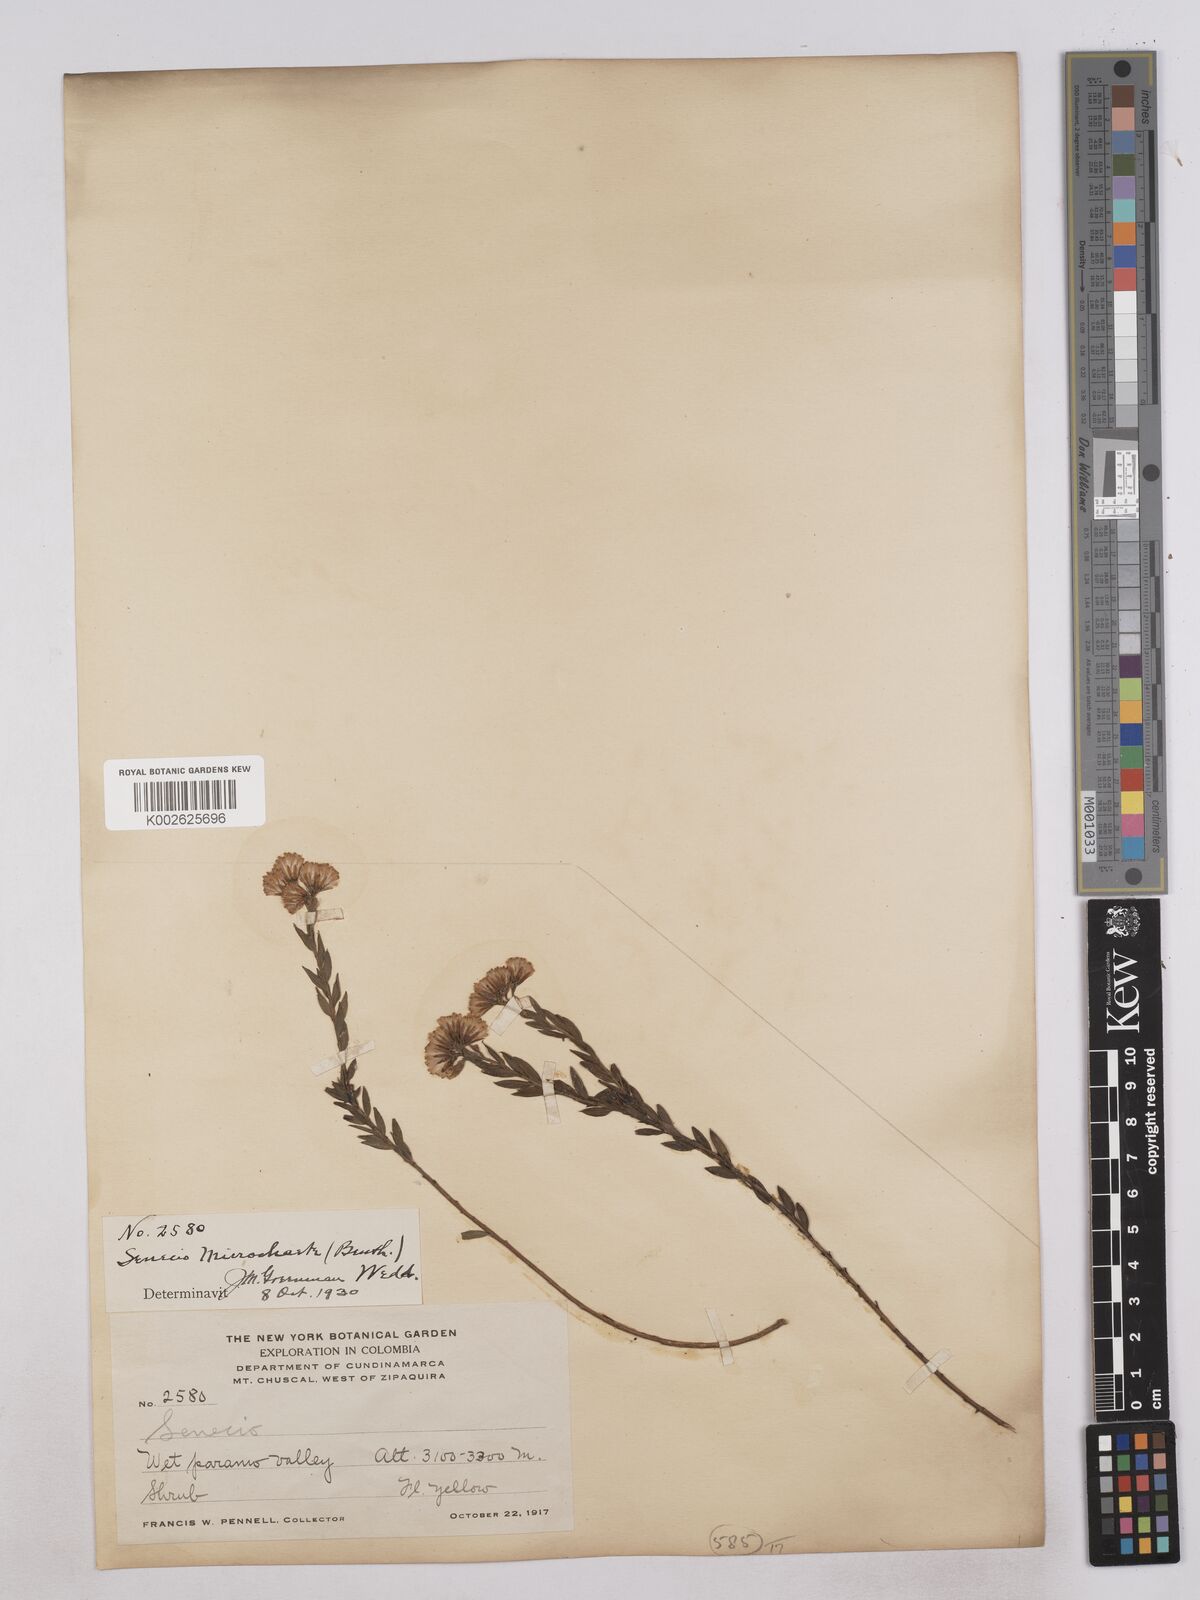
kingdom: Plantae
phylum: Tracheophyta
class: Magnoliopsida
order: Asterales
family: Asteraceae
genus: Monticalia
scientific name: Monticalia corymbosa
